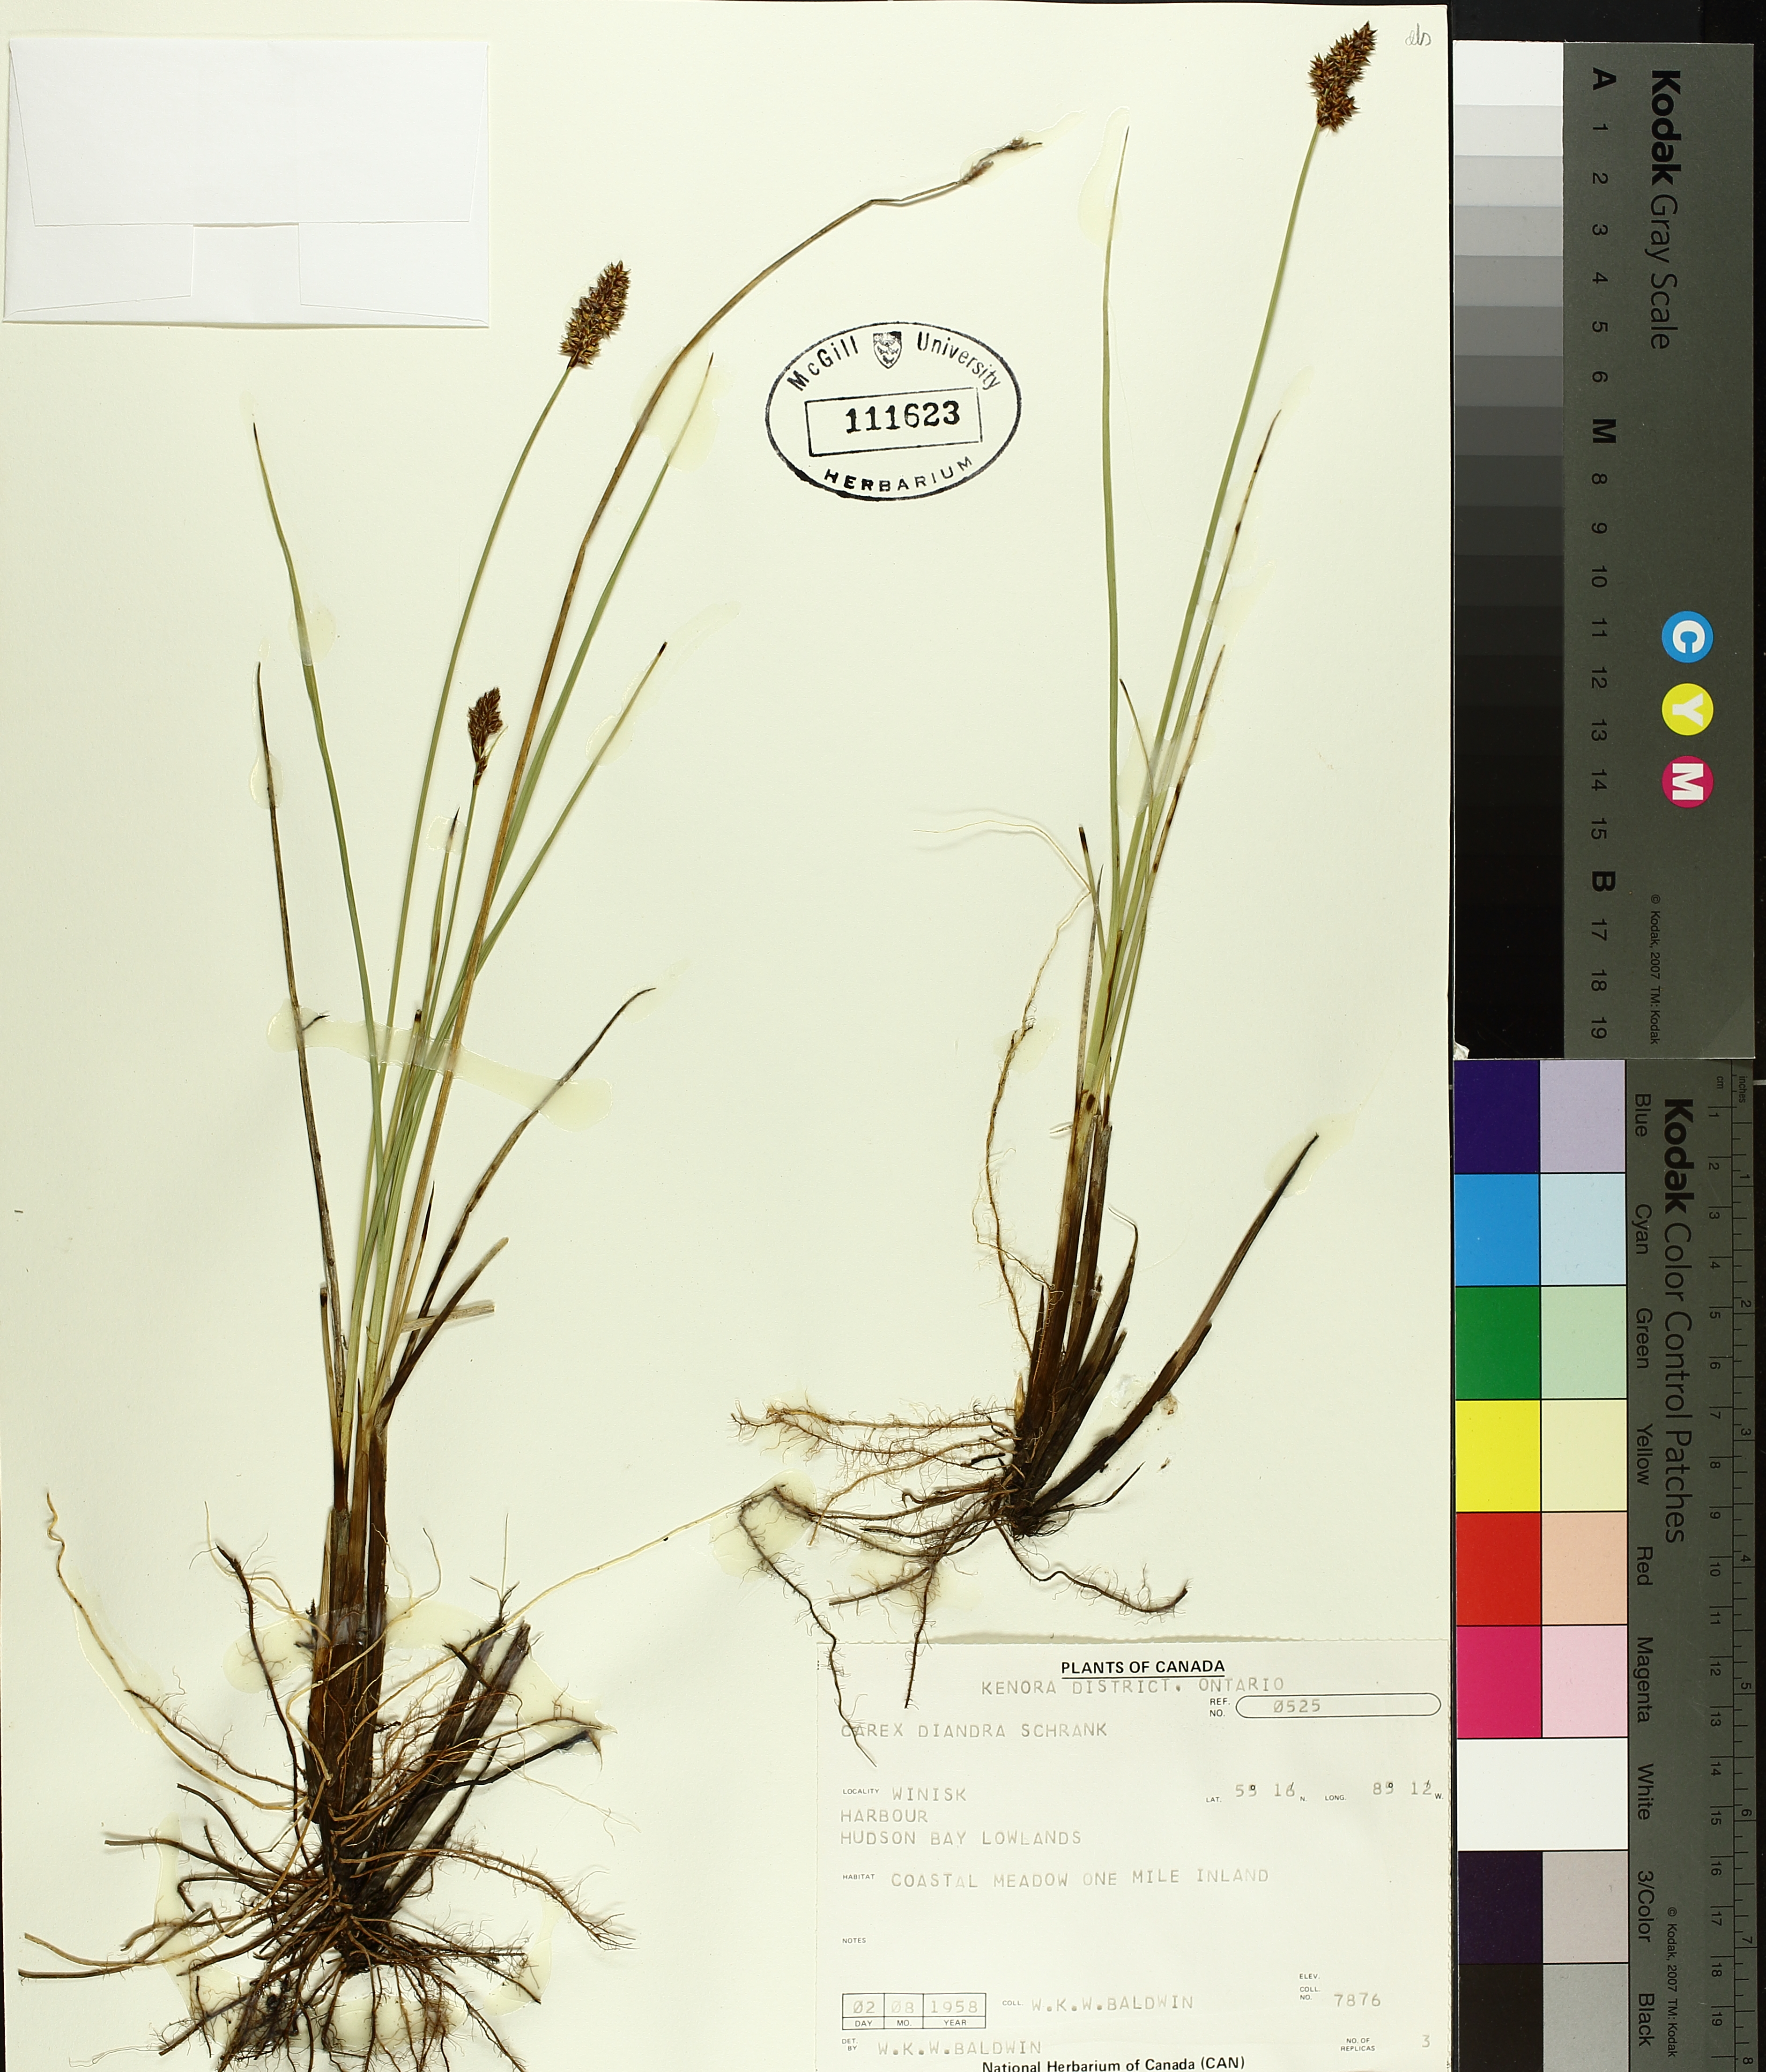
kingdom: Plantae
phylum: Tracheophyta
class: Liliopsida
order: Poales
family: Cyperaceae
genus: Carex
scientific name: Carex diandra
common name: Lesser tussock-sedge
